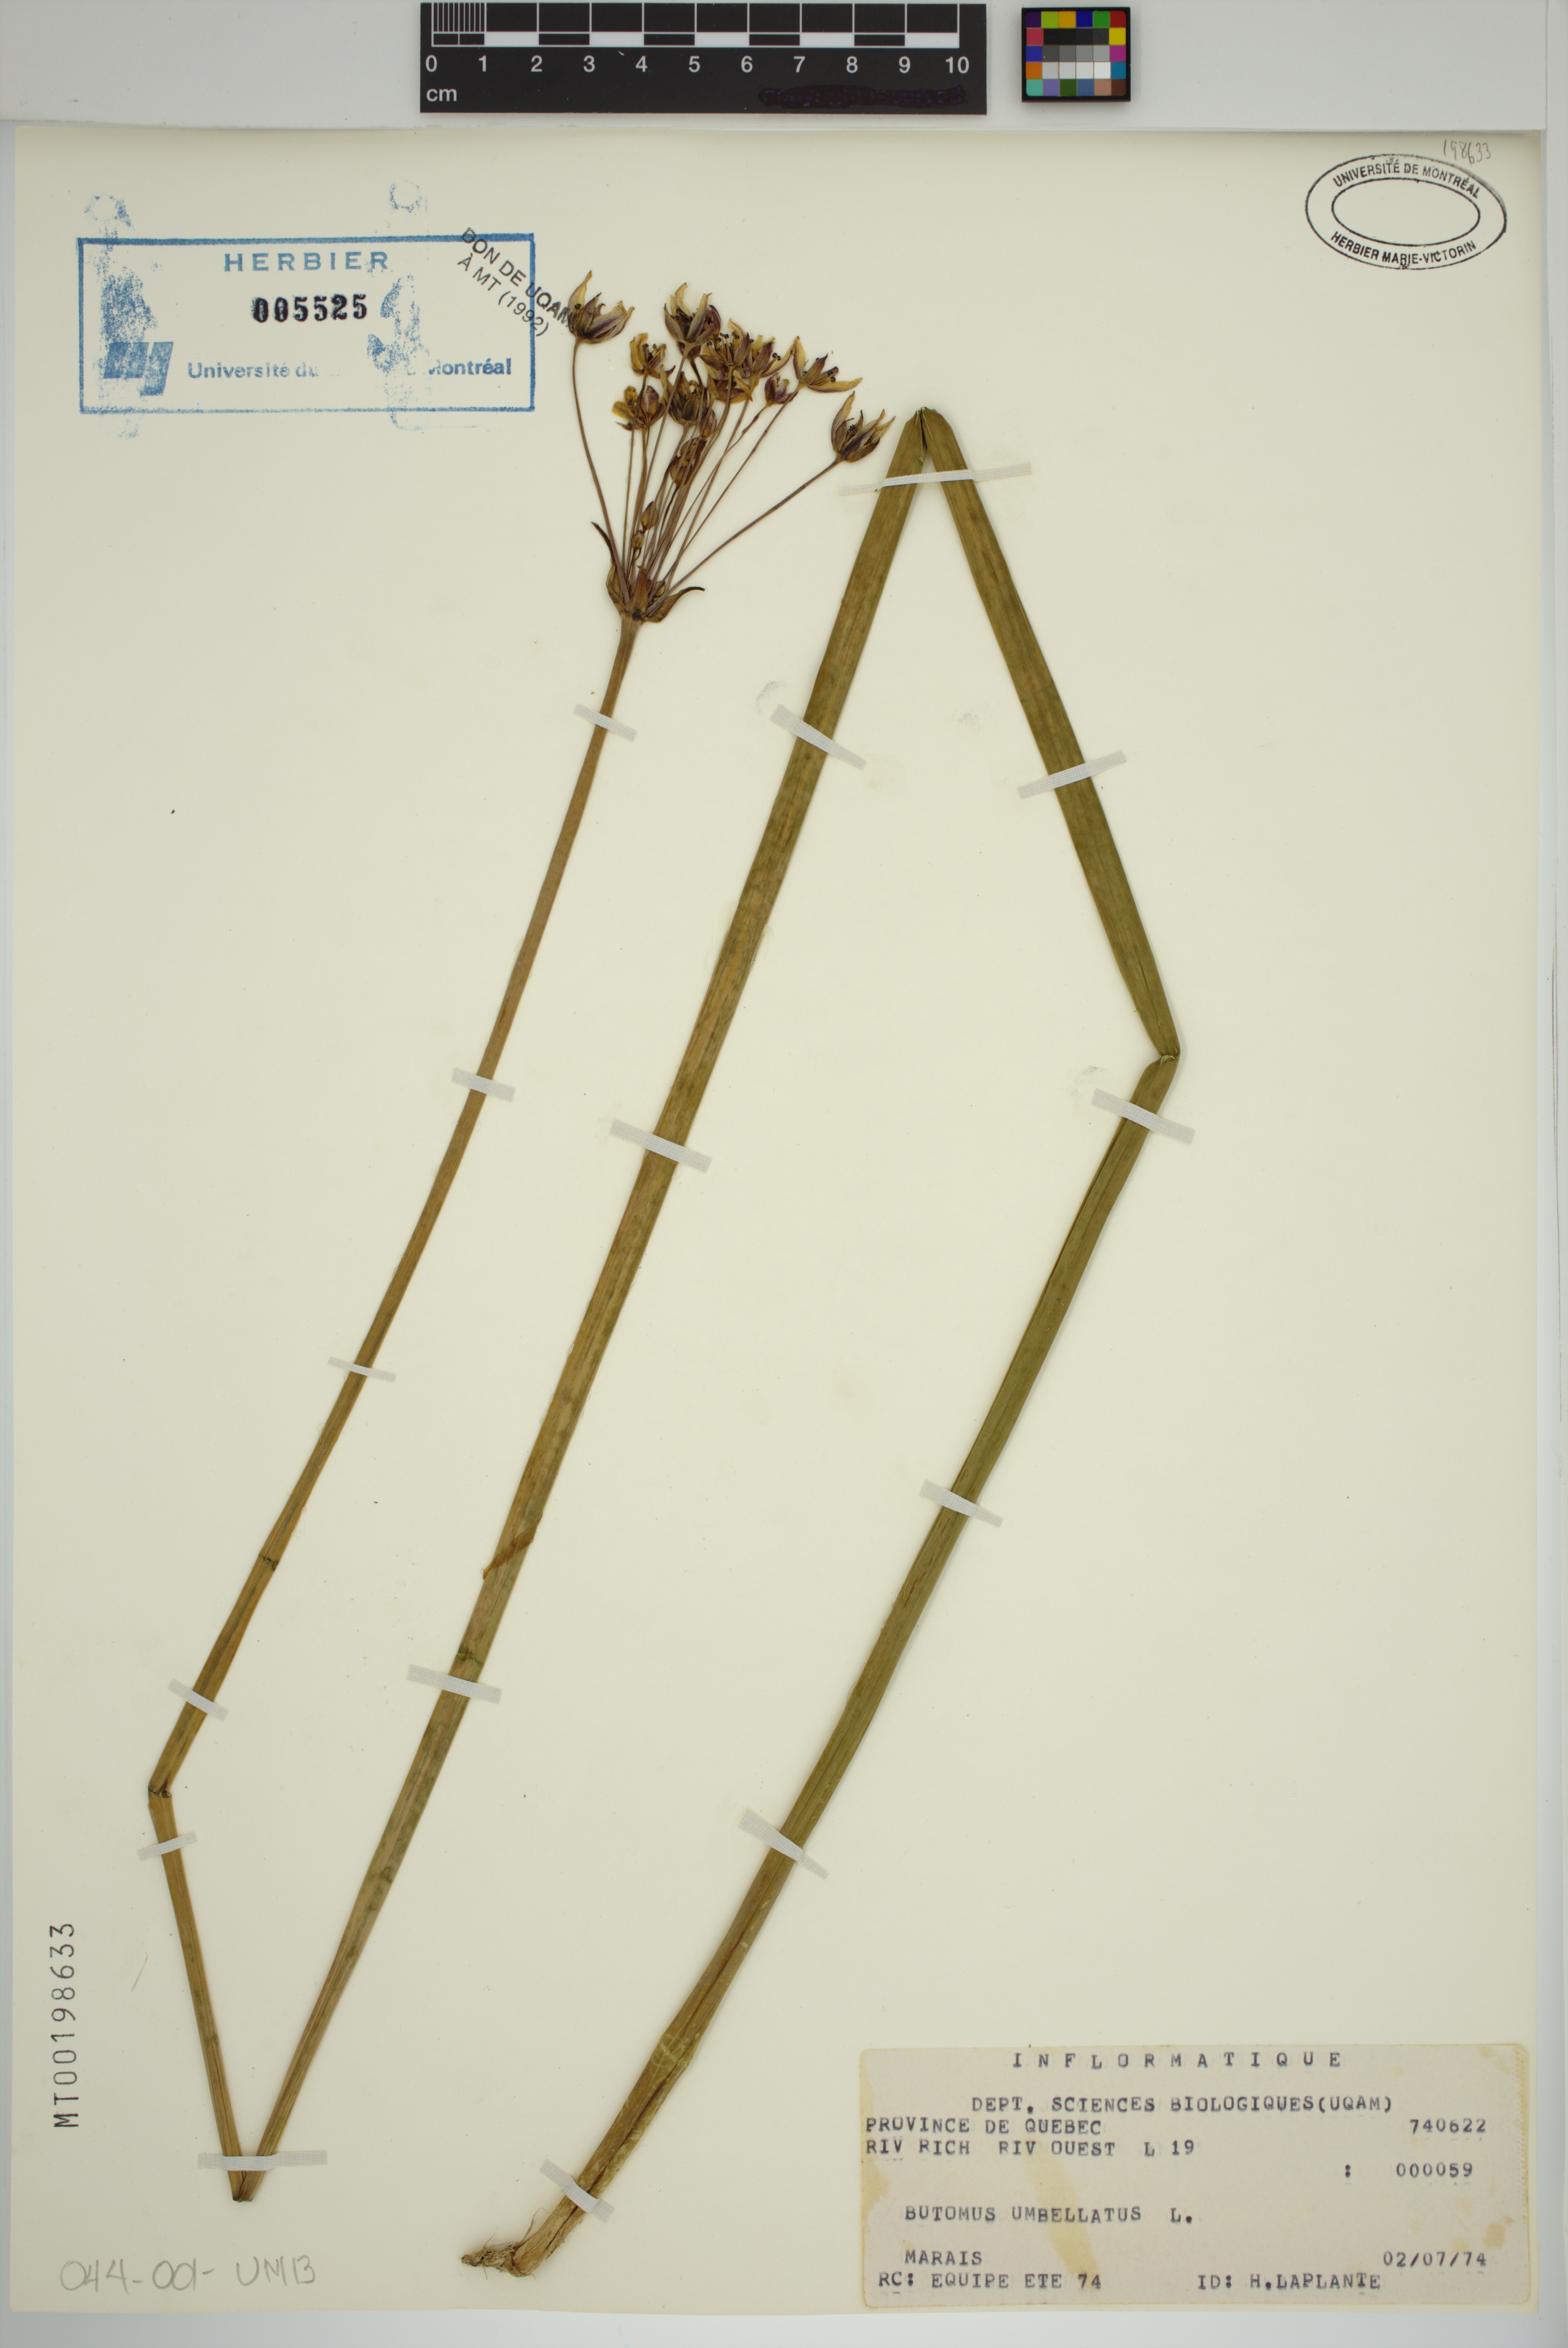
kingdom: Plantae
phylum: Tracheophyta
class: Liliopsida
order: Alismatales
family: Butomaceae
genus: Butomus
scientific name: Butomus umbellatus
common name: Flowering-rush
